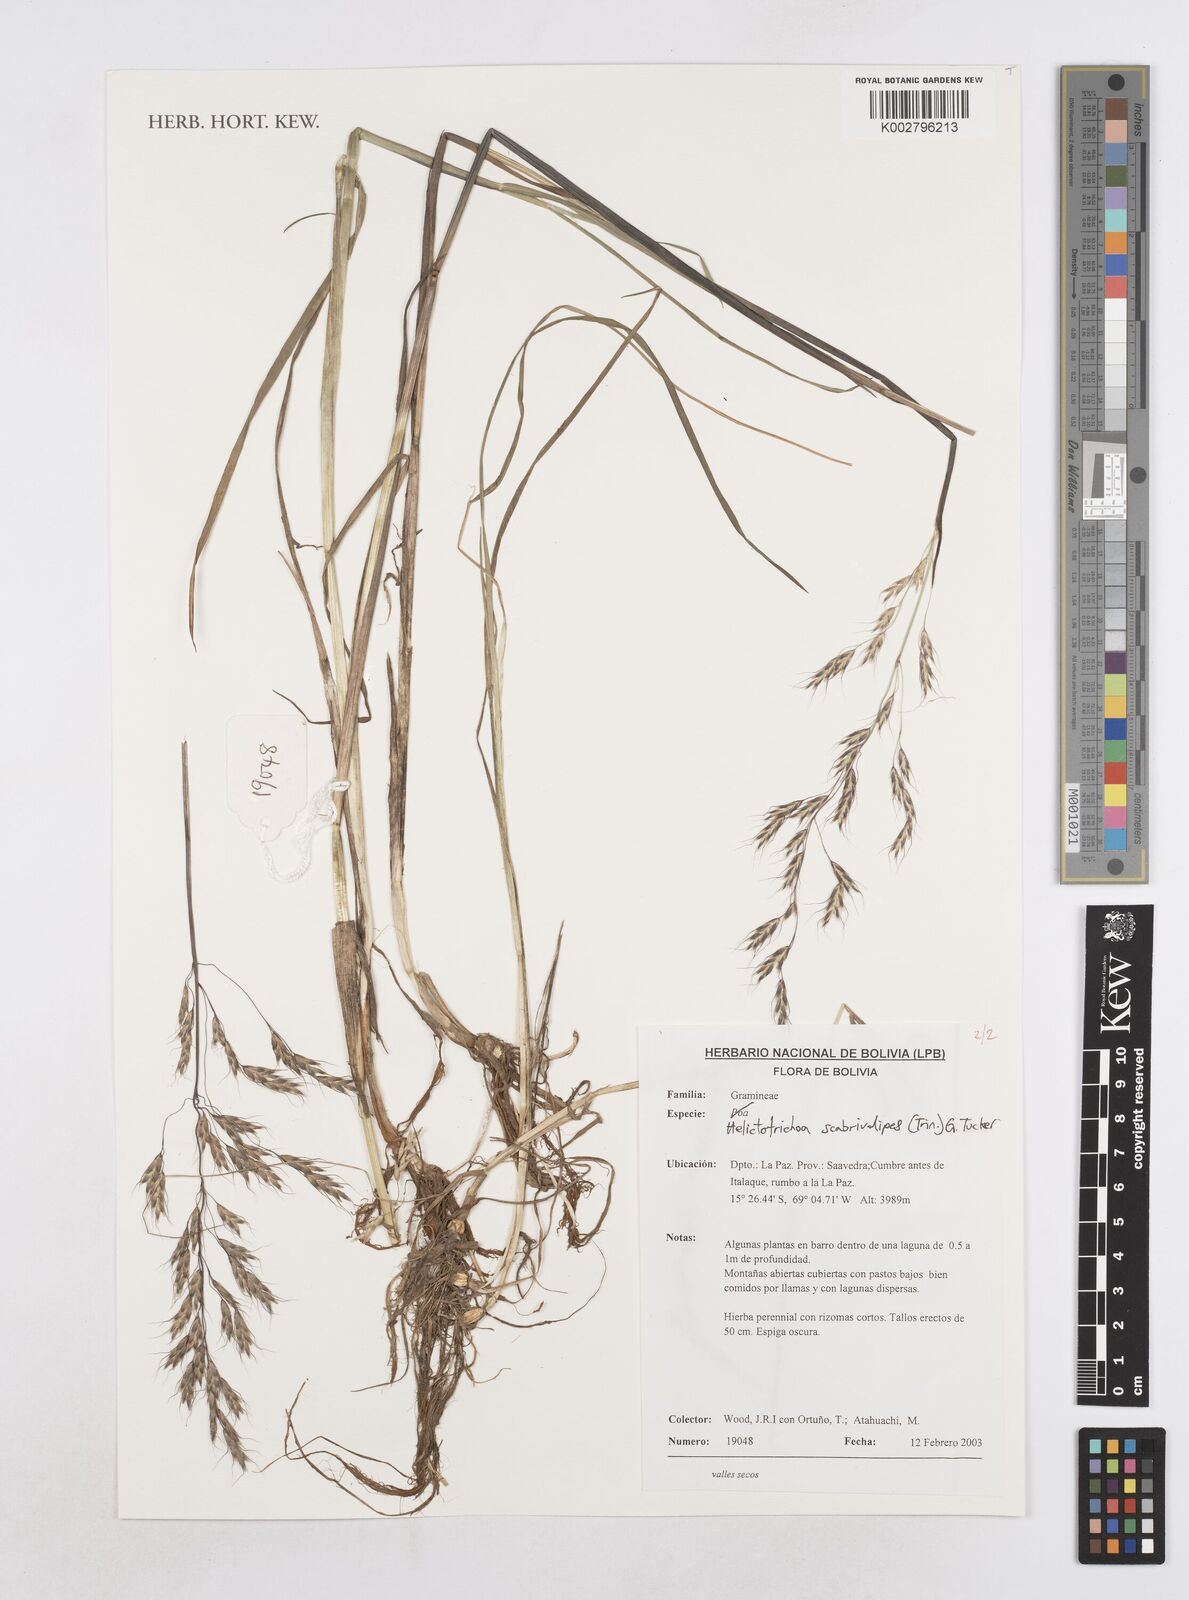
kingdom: Plantae
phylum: Tracheophyta
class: Liliopsida
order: Poales
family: Poaceae
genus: Amphibromus
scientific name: Amphibromus scabrivalvis
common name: Swamp wallaby grass
